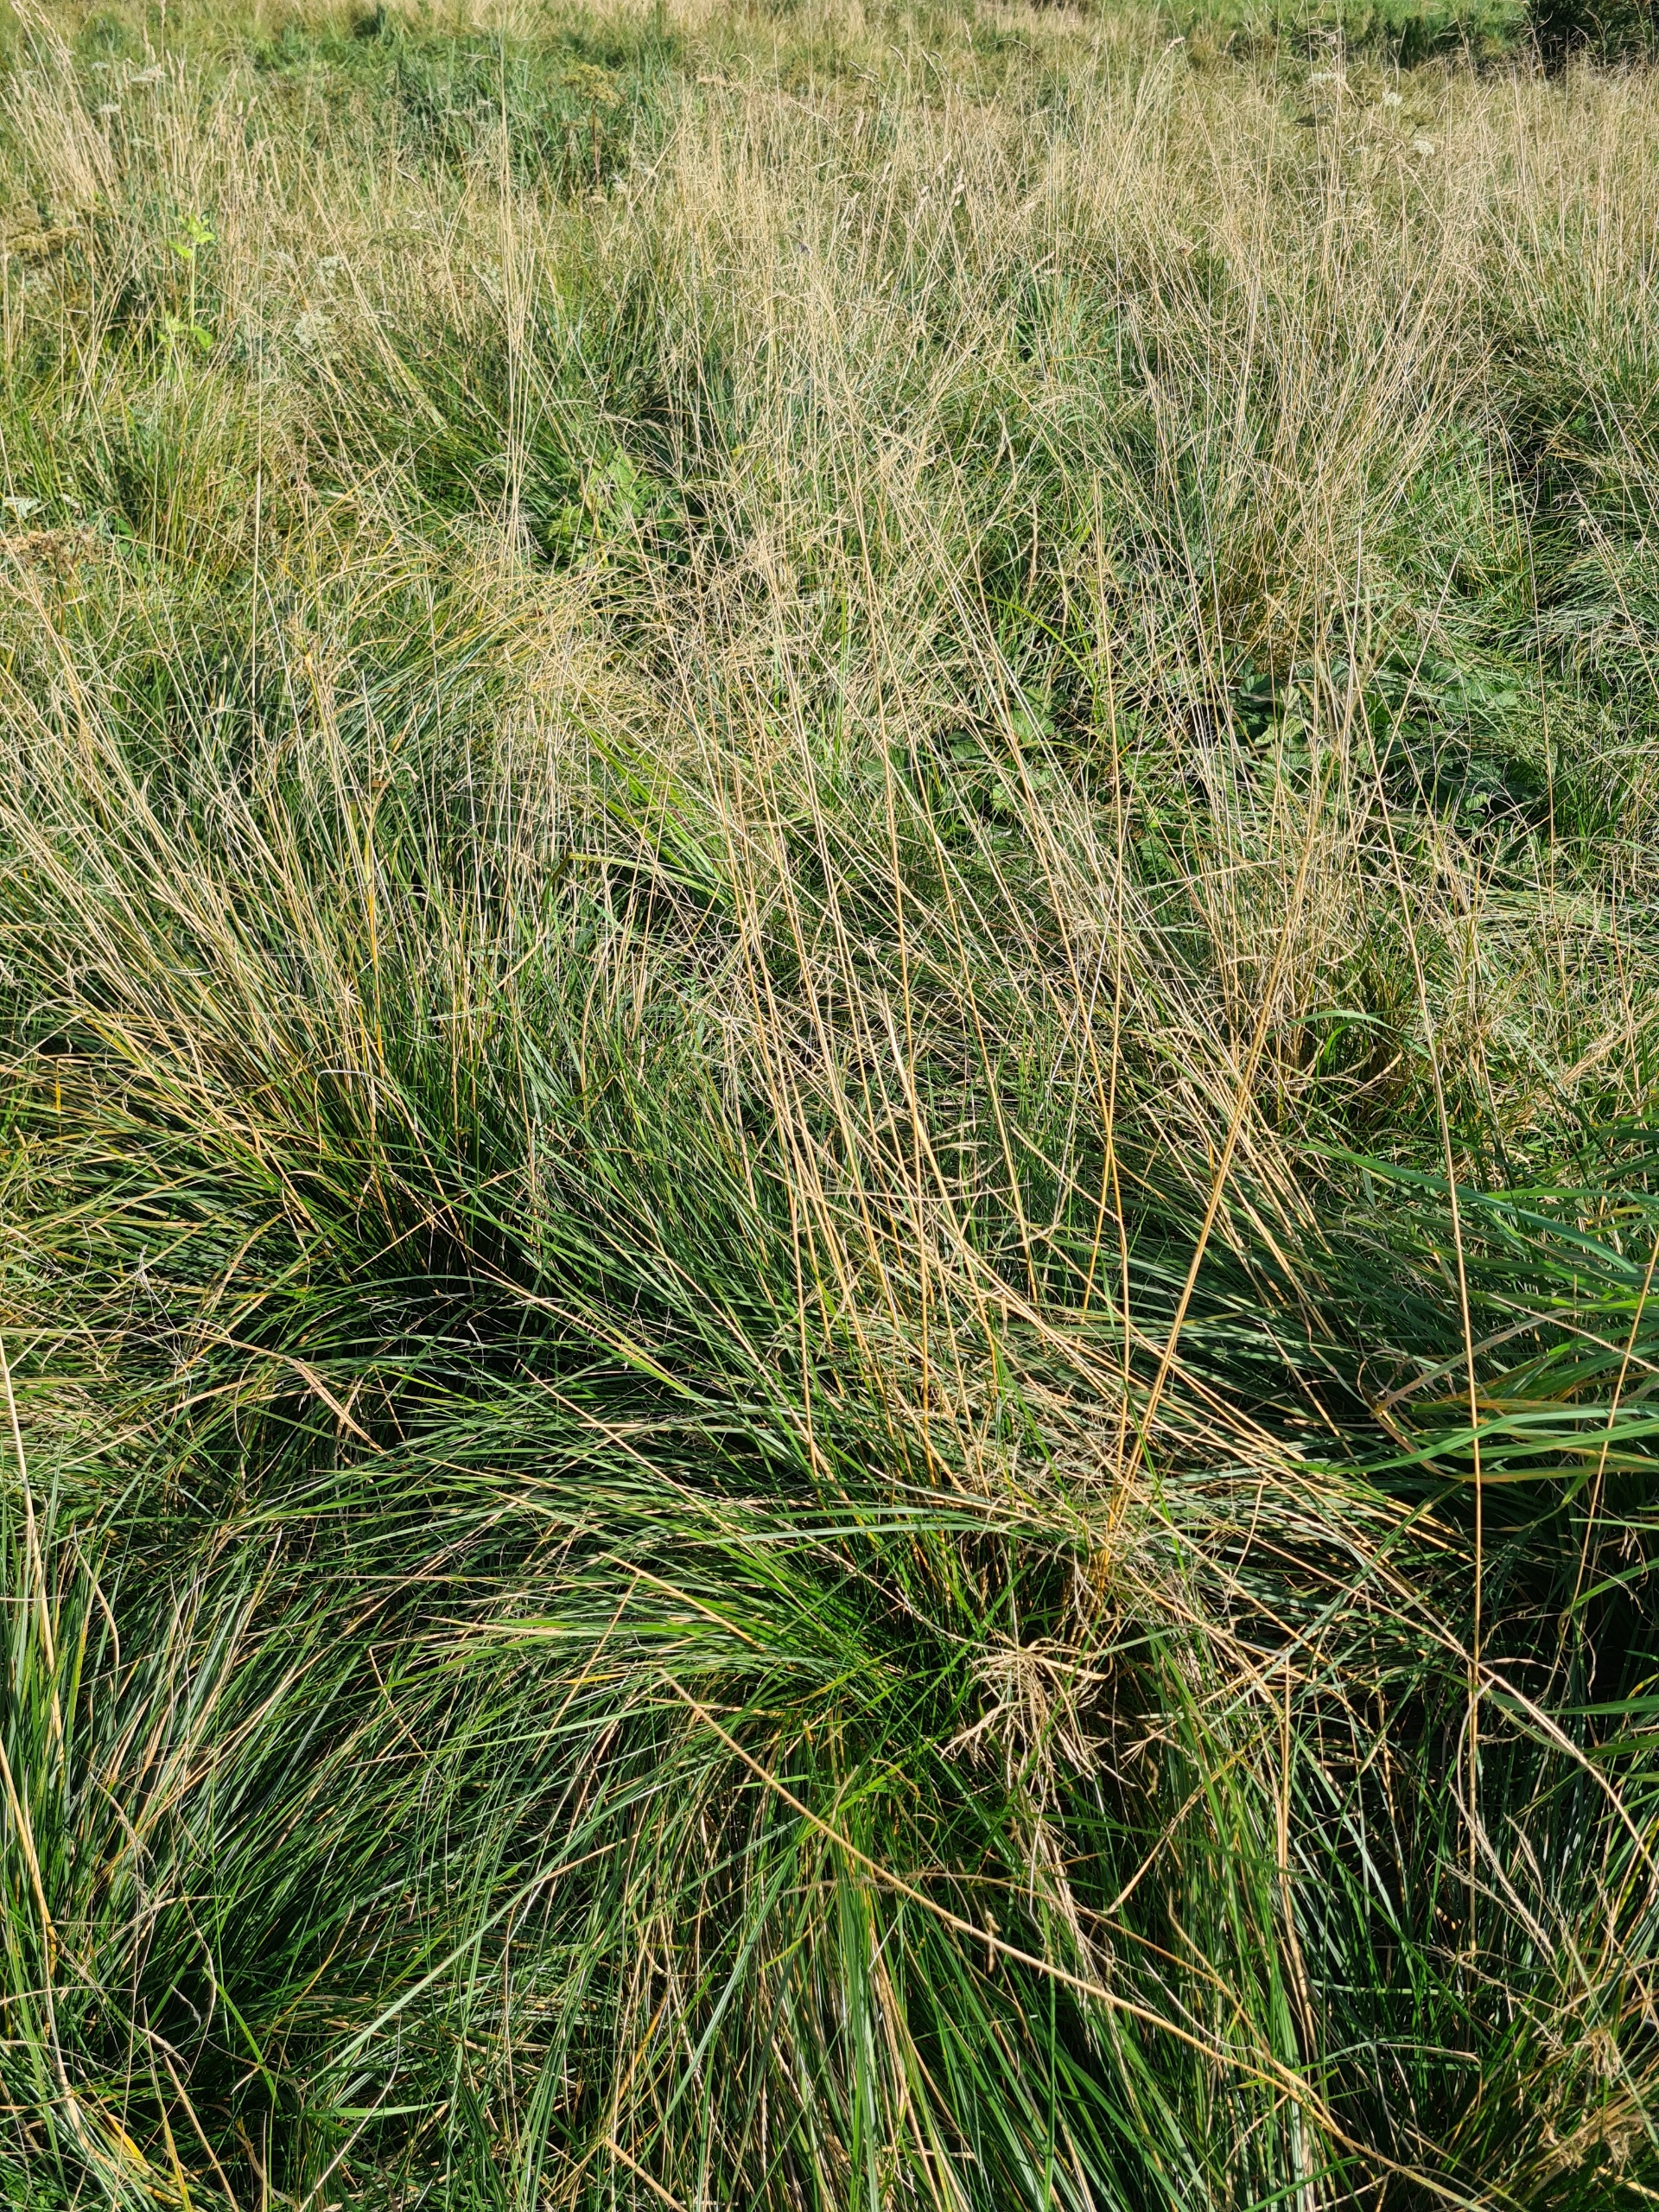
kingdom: Plantae
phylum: Tracheophyta
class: Liliopsida
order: Poales
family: Poaceae
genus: Deschampsia
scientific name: Deschampsia cespitosa
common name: Mose-bunke
